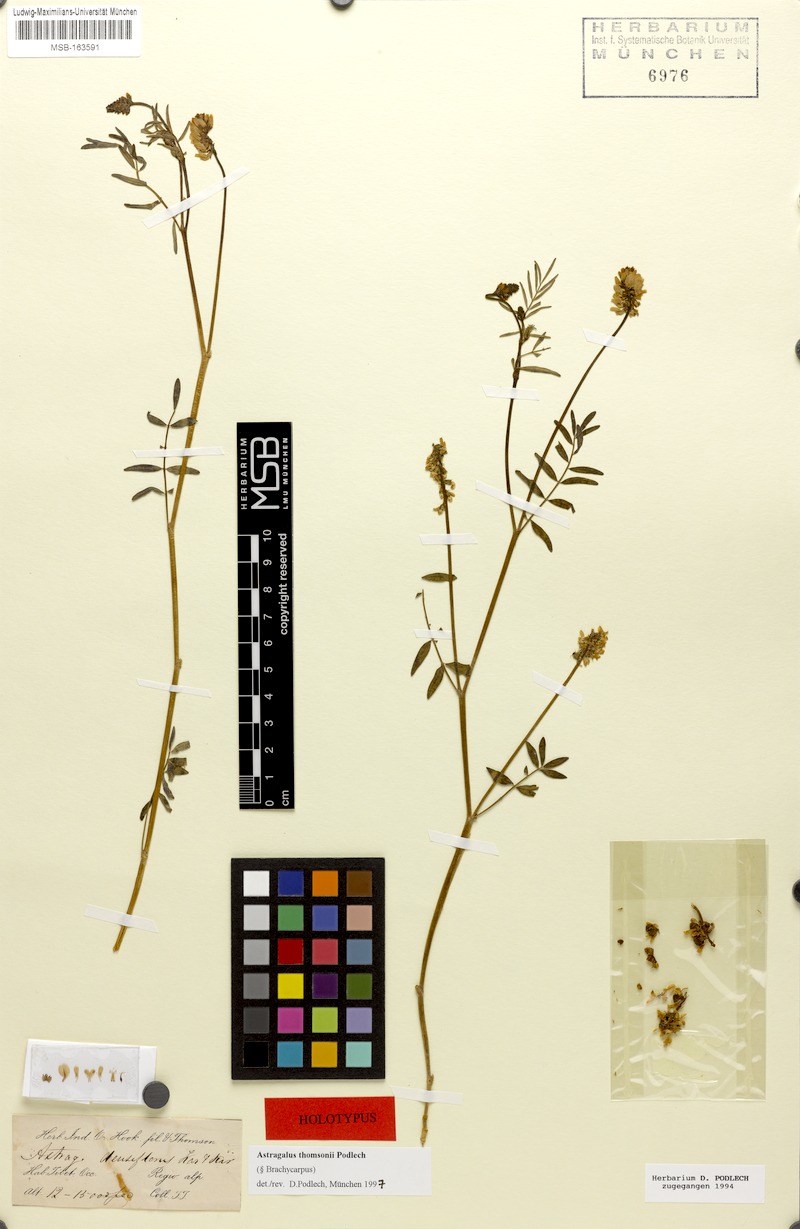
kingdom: Plantae
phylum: Tracheophyta
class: Magnoliopsida
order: Fabales
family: Fabaceae
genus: Astragalus
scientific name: Astragalus thomsonii
